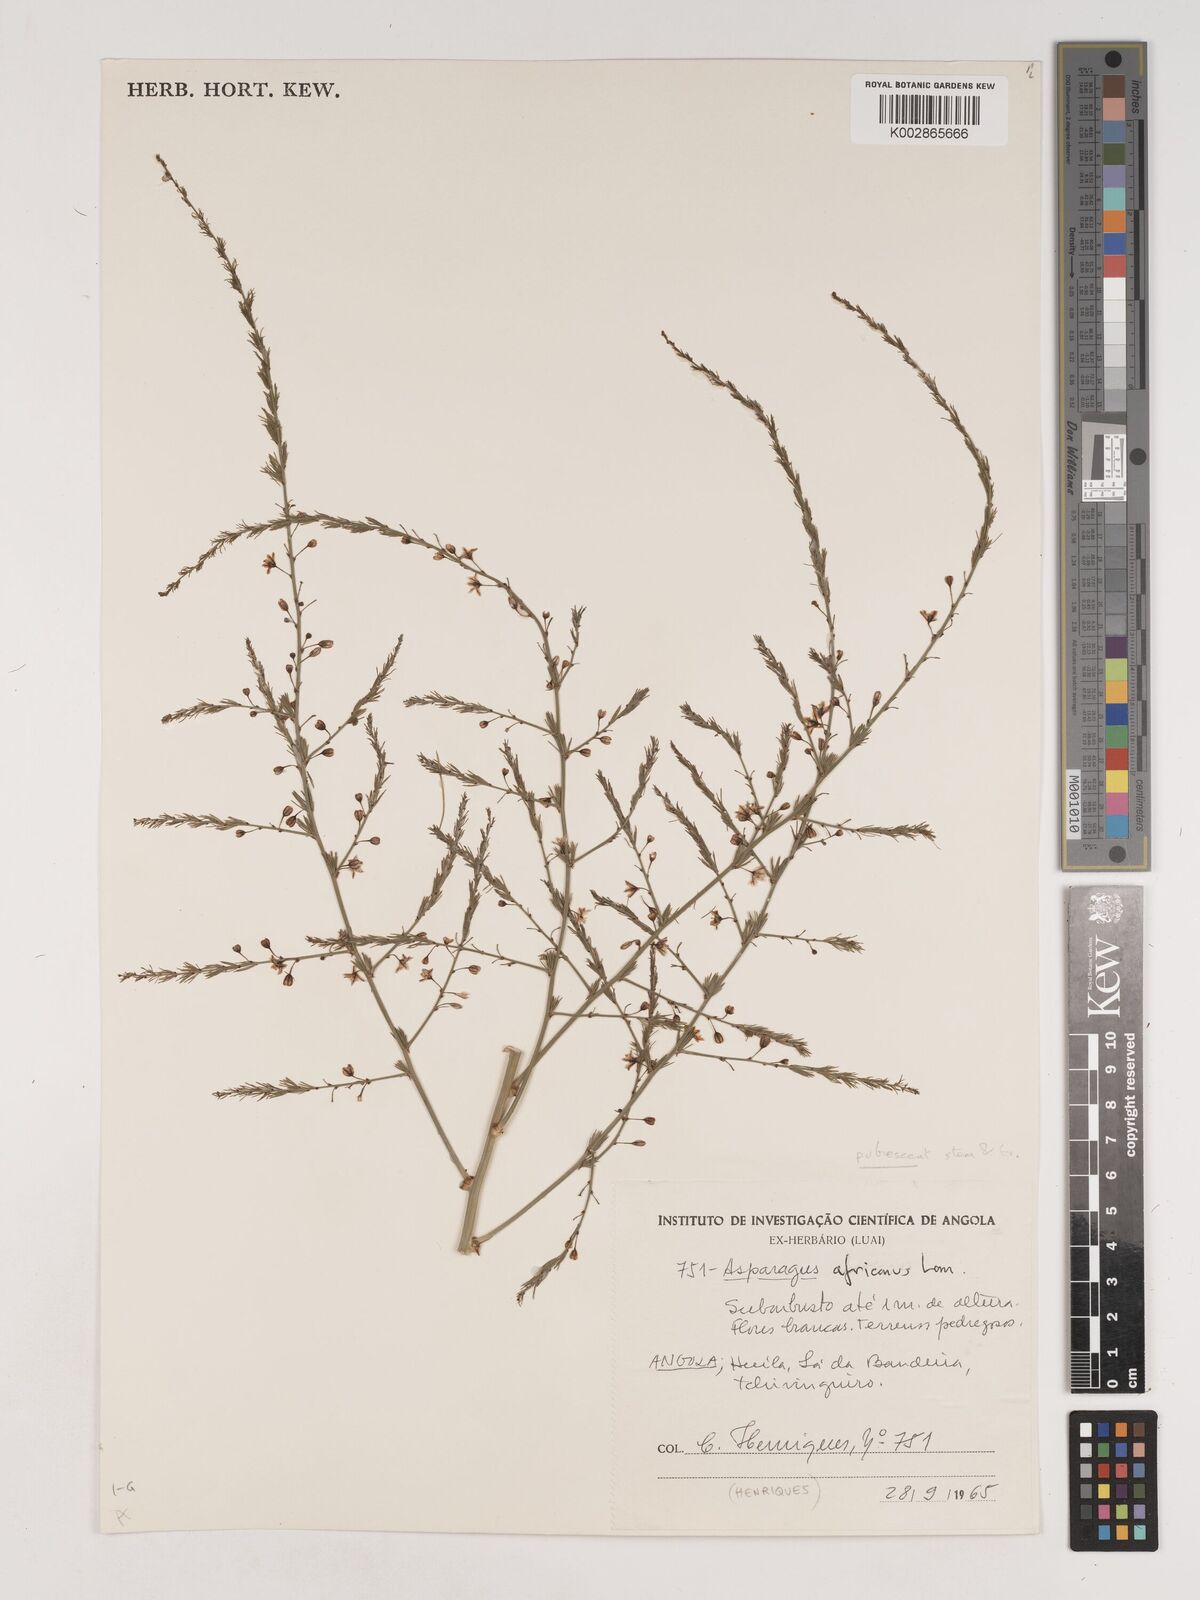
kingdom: Plantae
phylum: Tracheophyta
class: Liliopsida
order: Asparagales
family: Asparagaceae
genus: Asparagus
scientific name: Asparagus africanus
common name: Asparagus-fern
